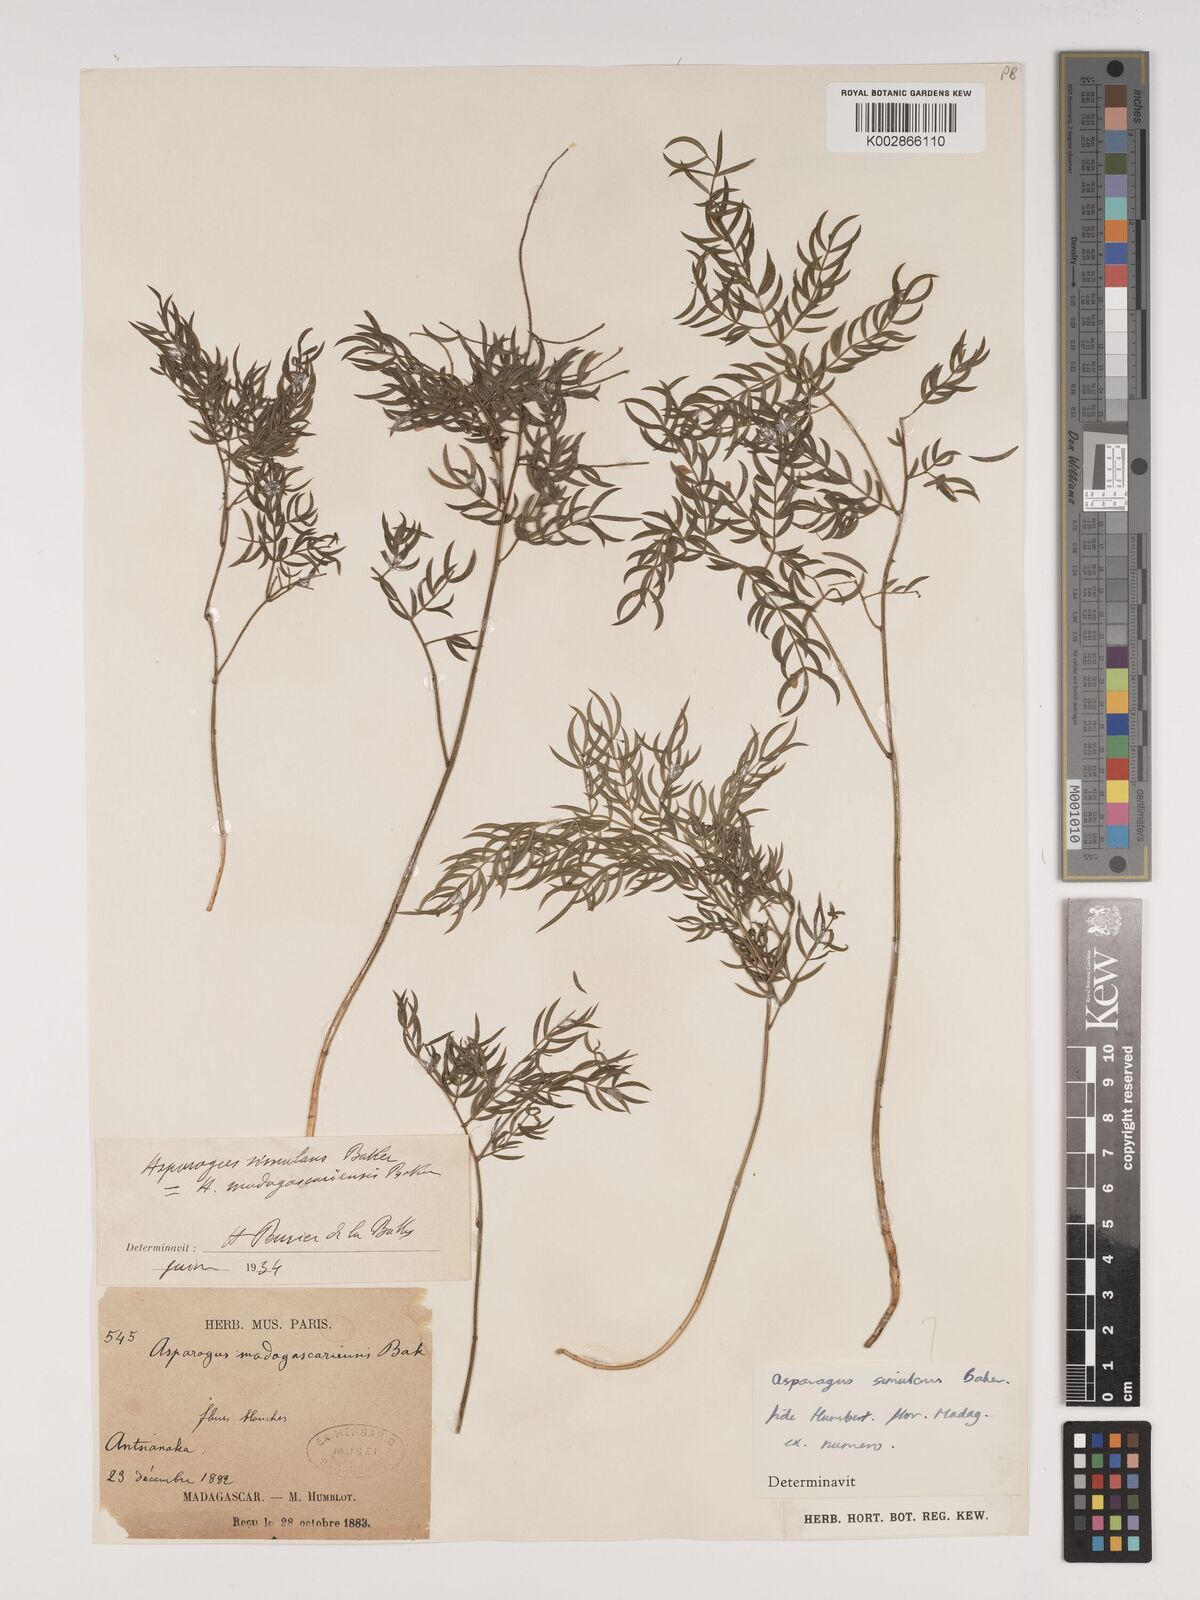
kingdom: Plantae
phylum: Tracheophyta
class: Liliopsida
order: Asparagales
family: Asparagaceae
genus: Asparagus
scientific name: Asparagus simulans
